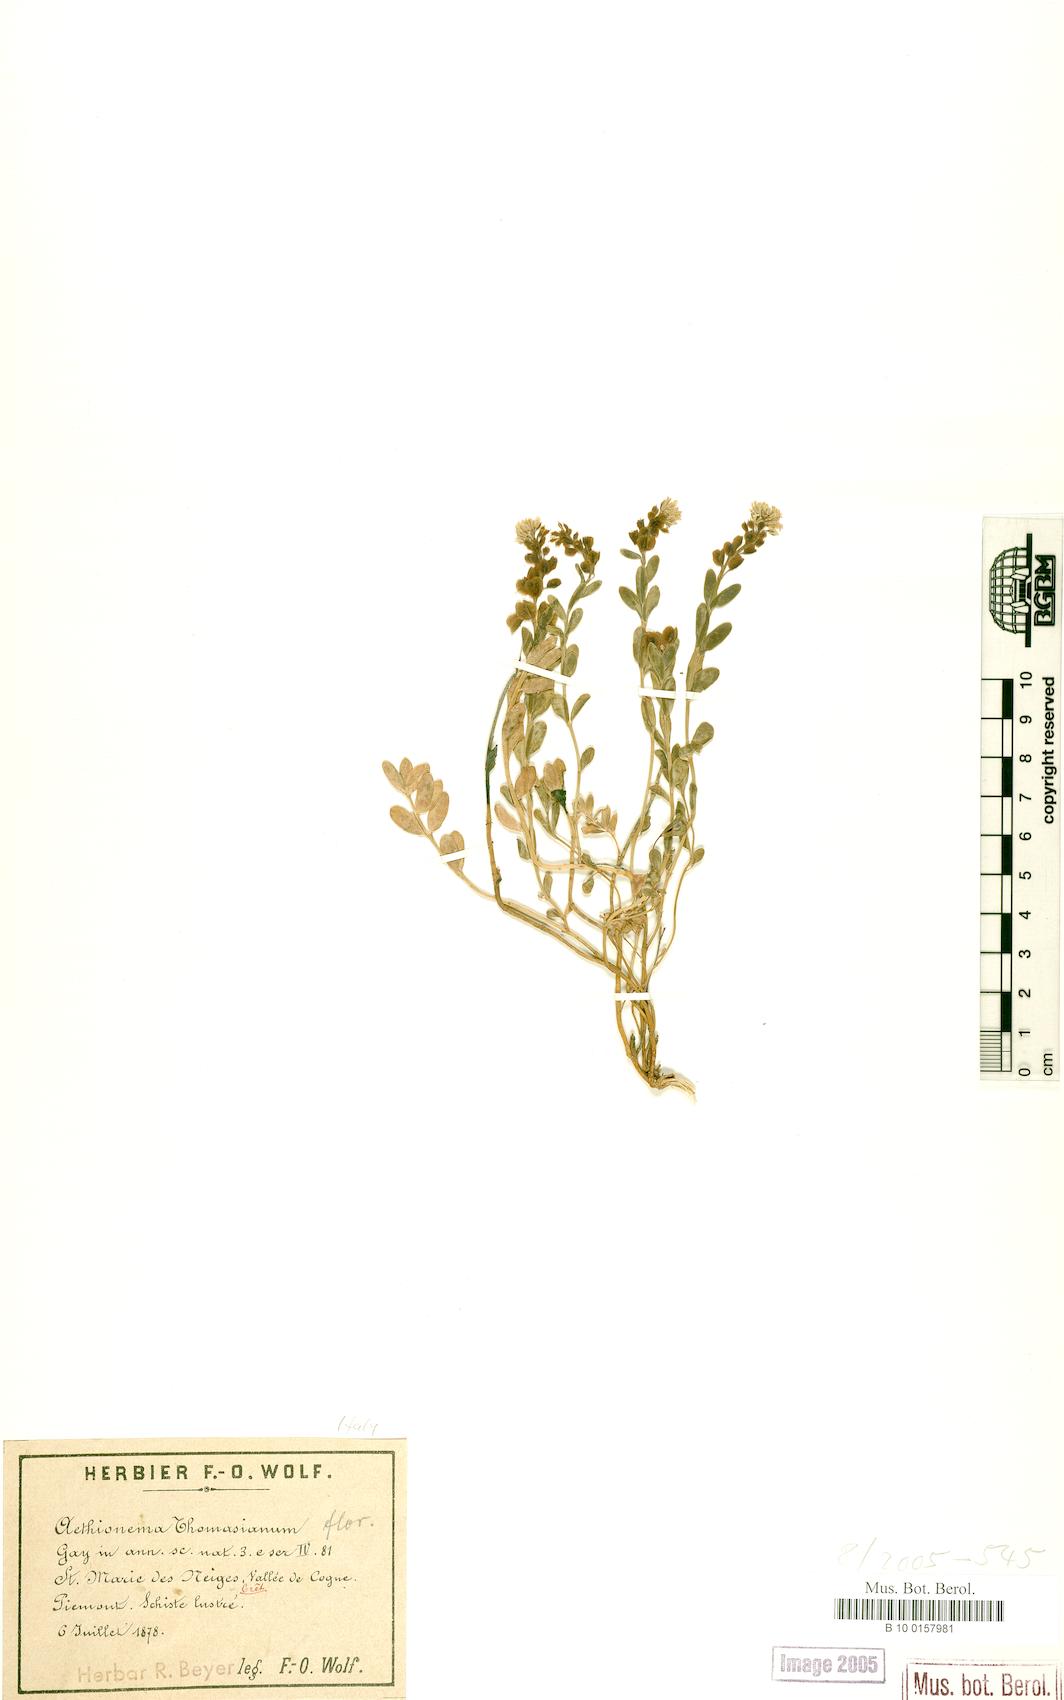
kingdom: Plantae
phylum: Tracheophyta
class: Magnoliopsida
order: Brassicales
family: Brassicaceae
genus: Aethionema
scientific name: Aethionema thomasianum
